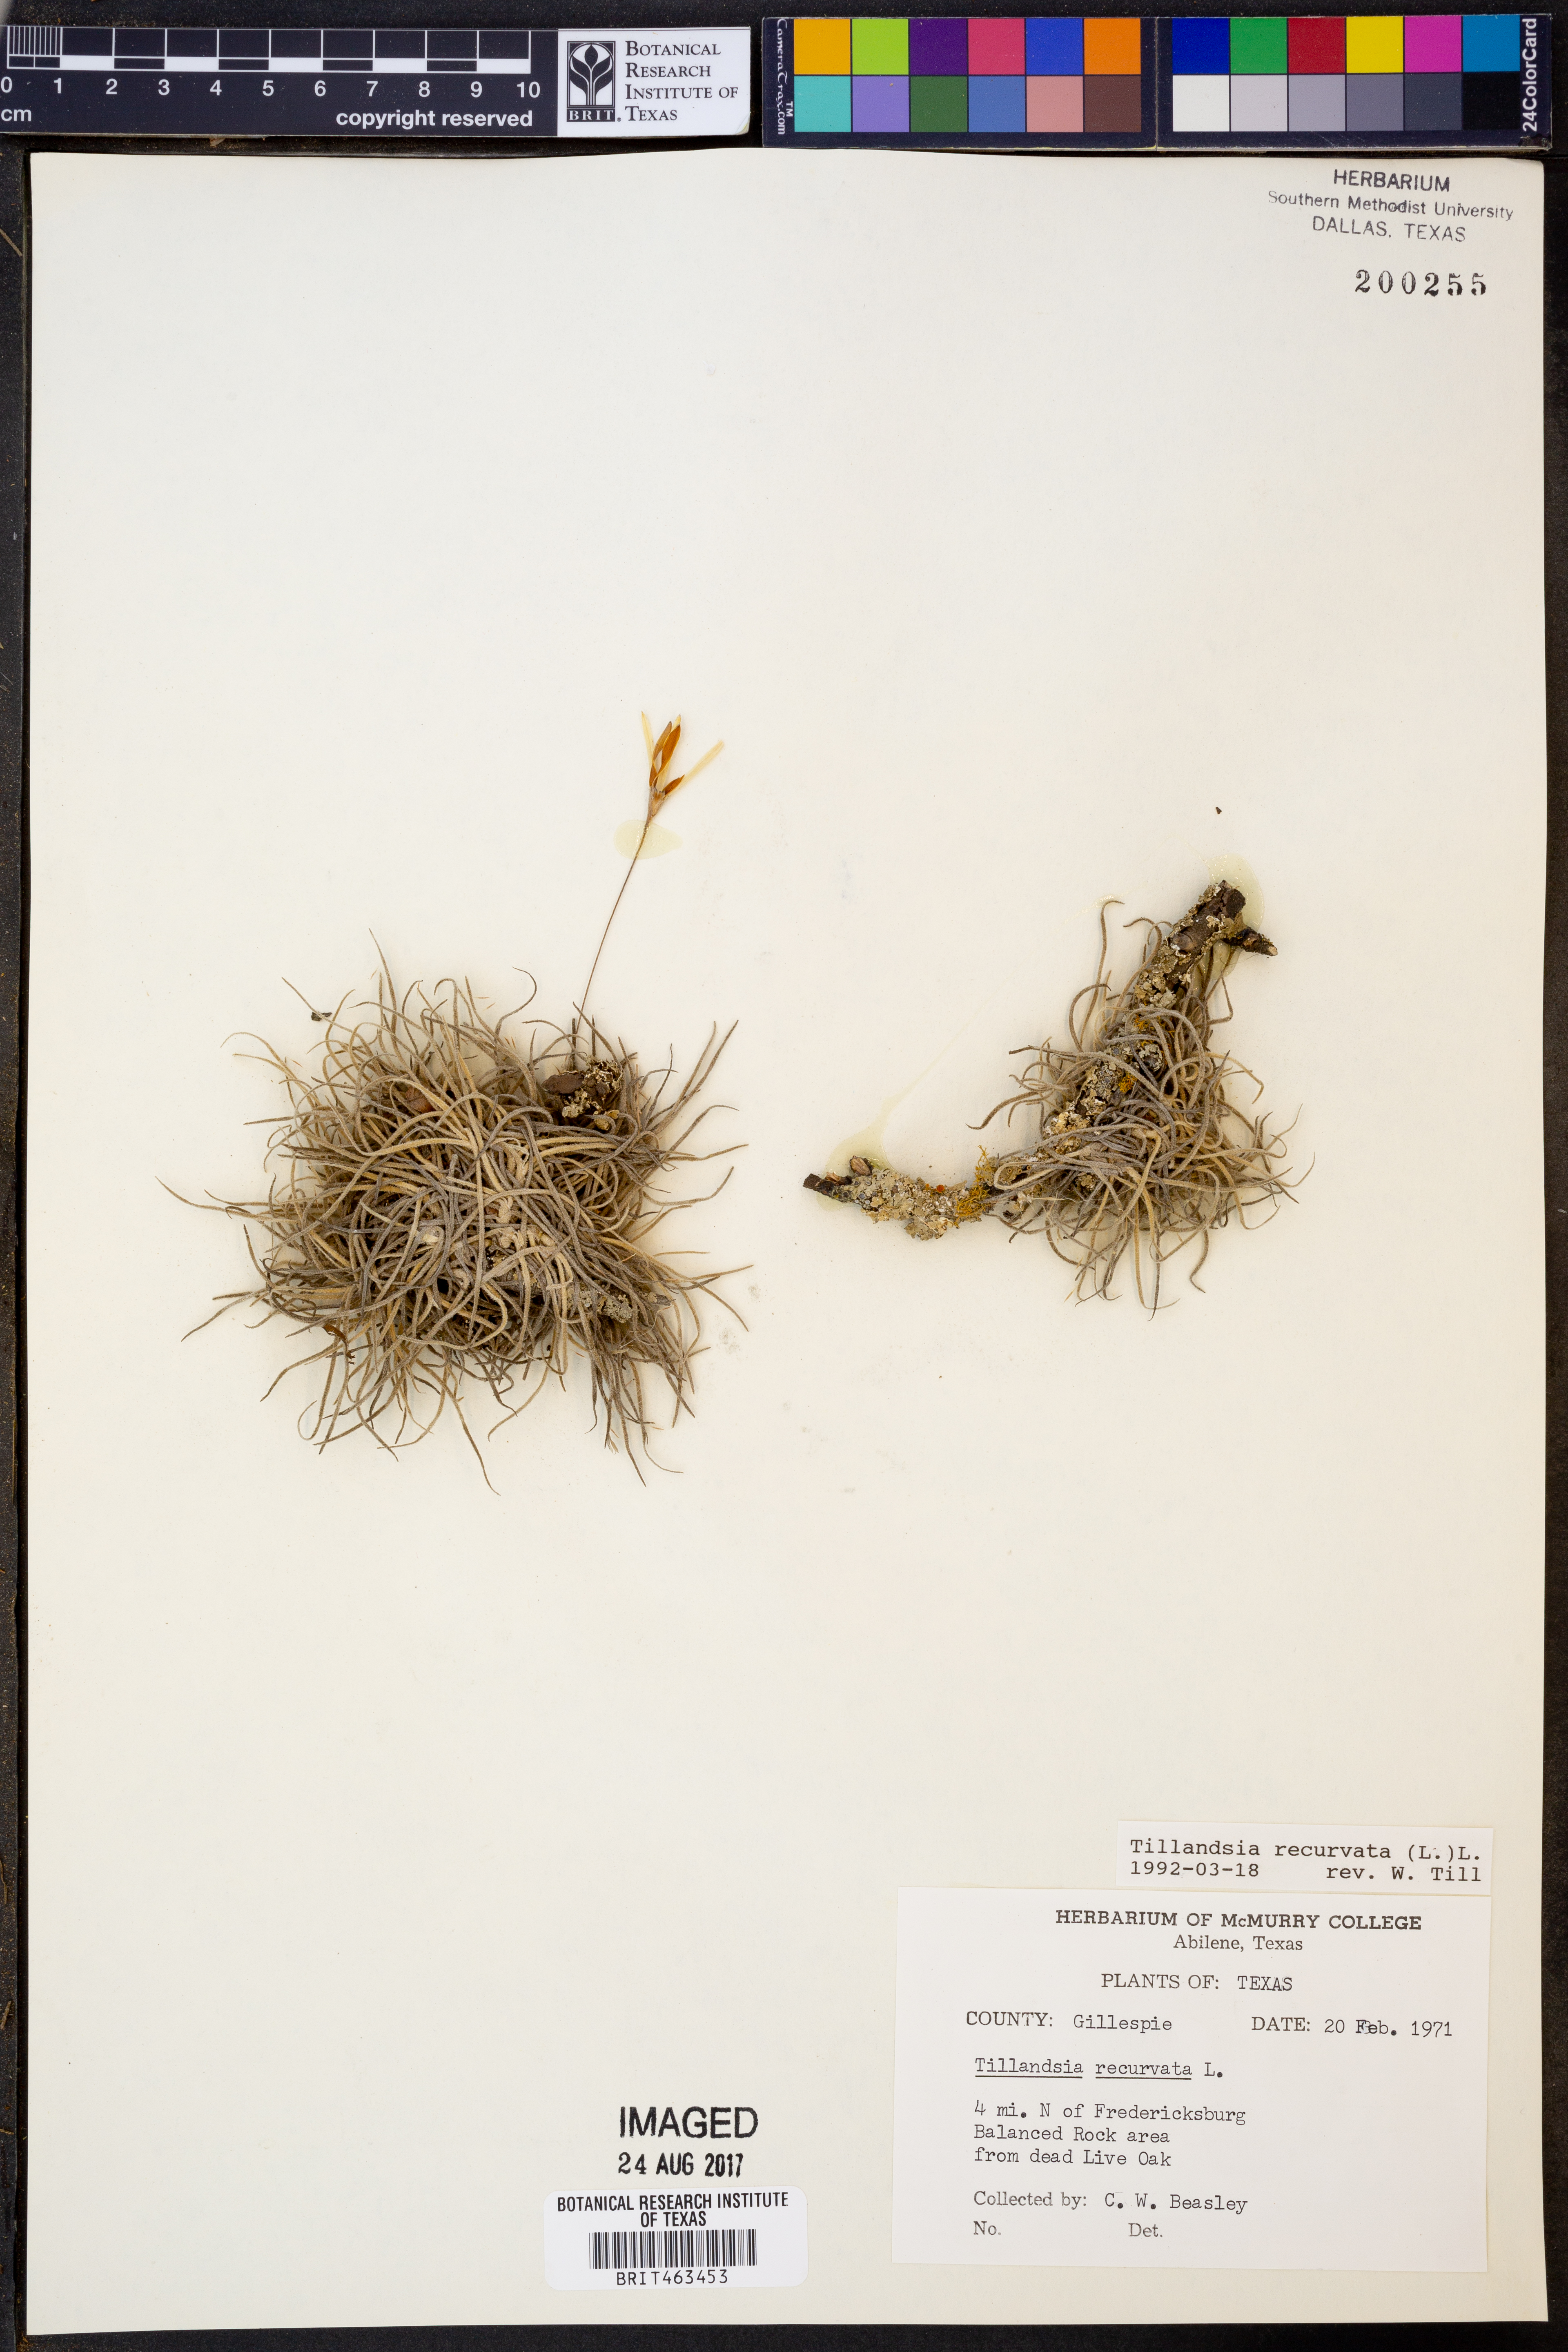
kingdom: Plantae
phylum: Tracheophyta
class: Liliopsida
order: Poales
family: Bromeliaceae
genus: Tillandsia
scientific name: Tillandsia recurvata
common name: Small ballmoss
